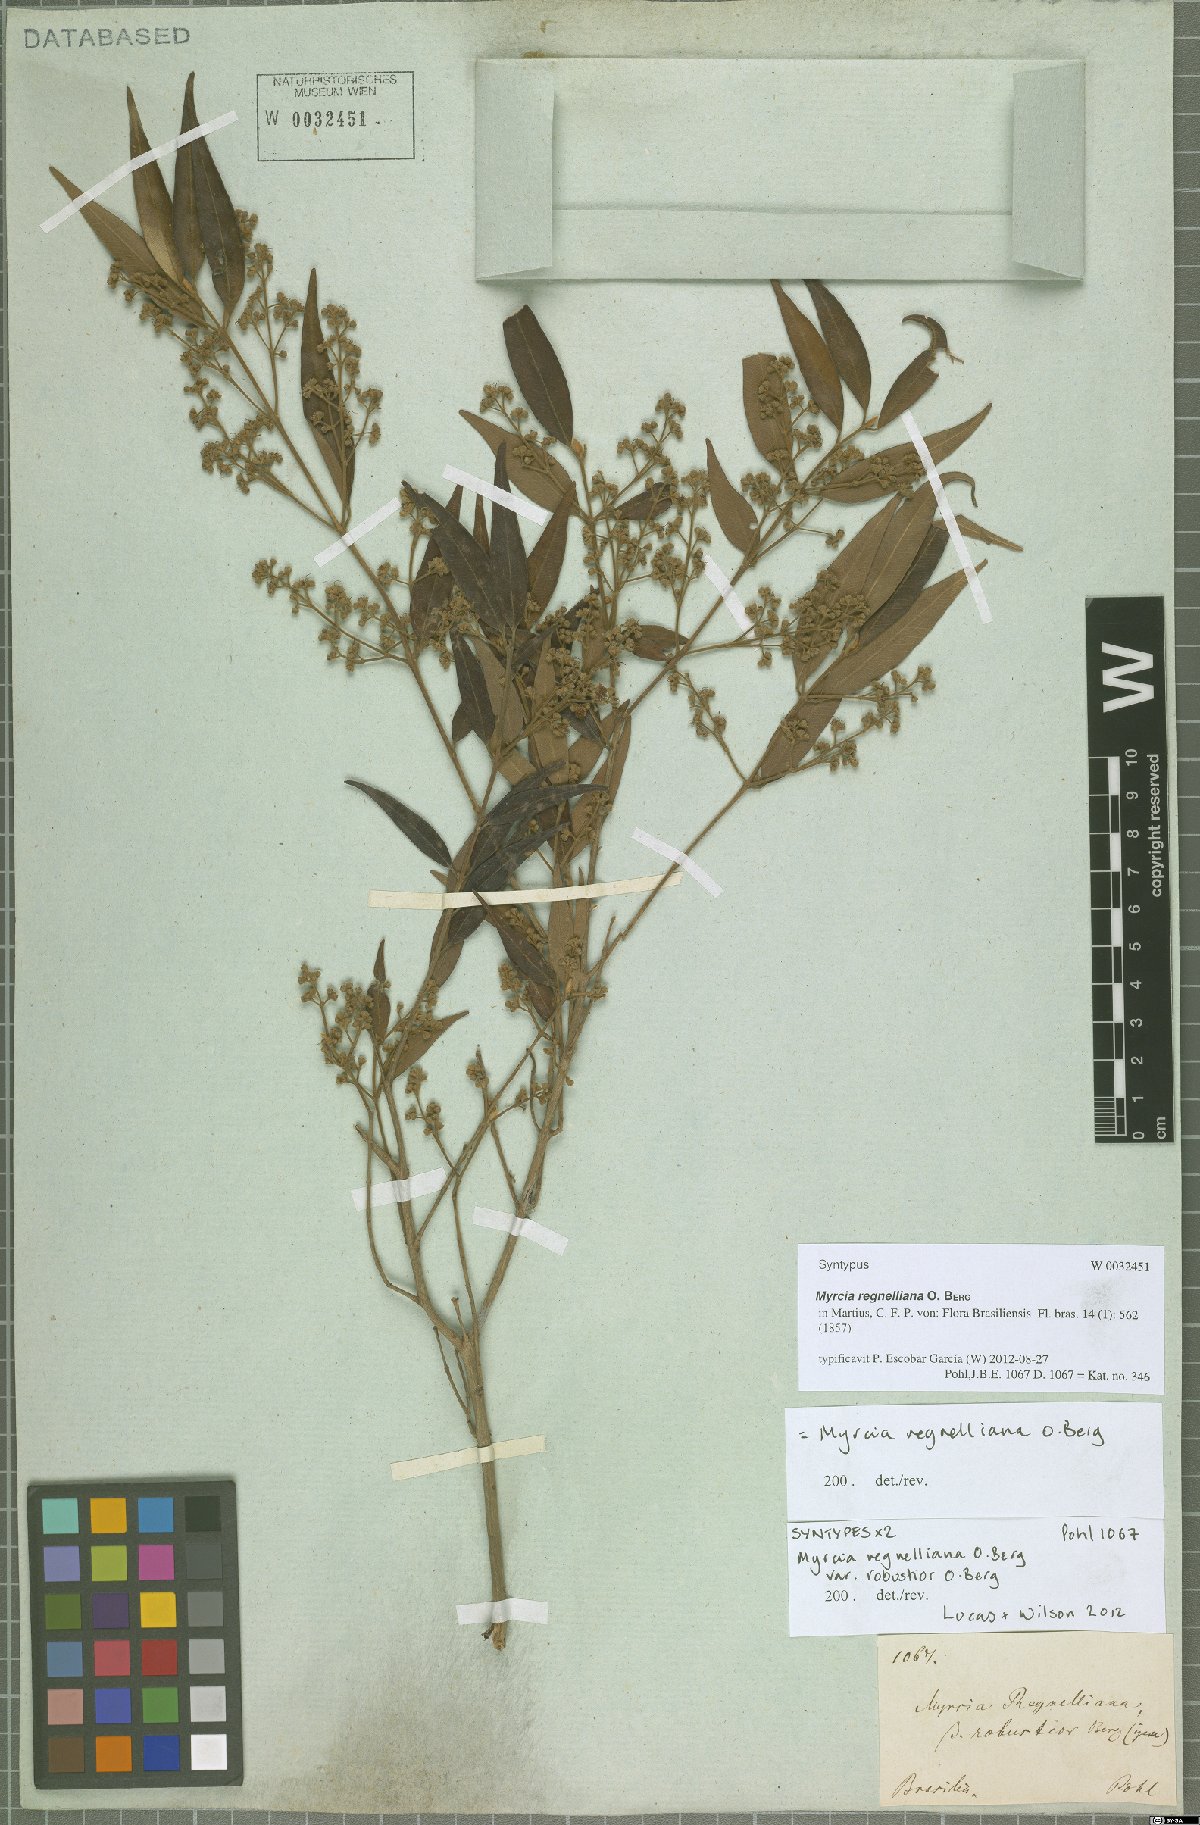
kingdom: Plantae
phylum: Tracheophyta
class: Magnoliopsida
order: Myrtales
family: Myrtaceae
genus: Myrcia
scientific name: Myrcia regnelliana
